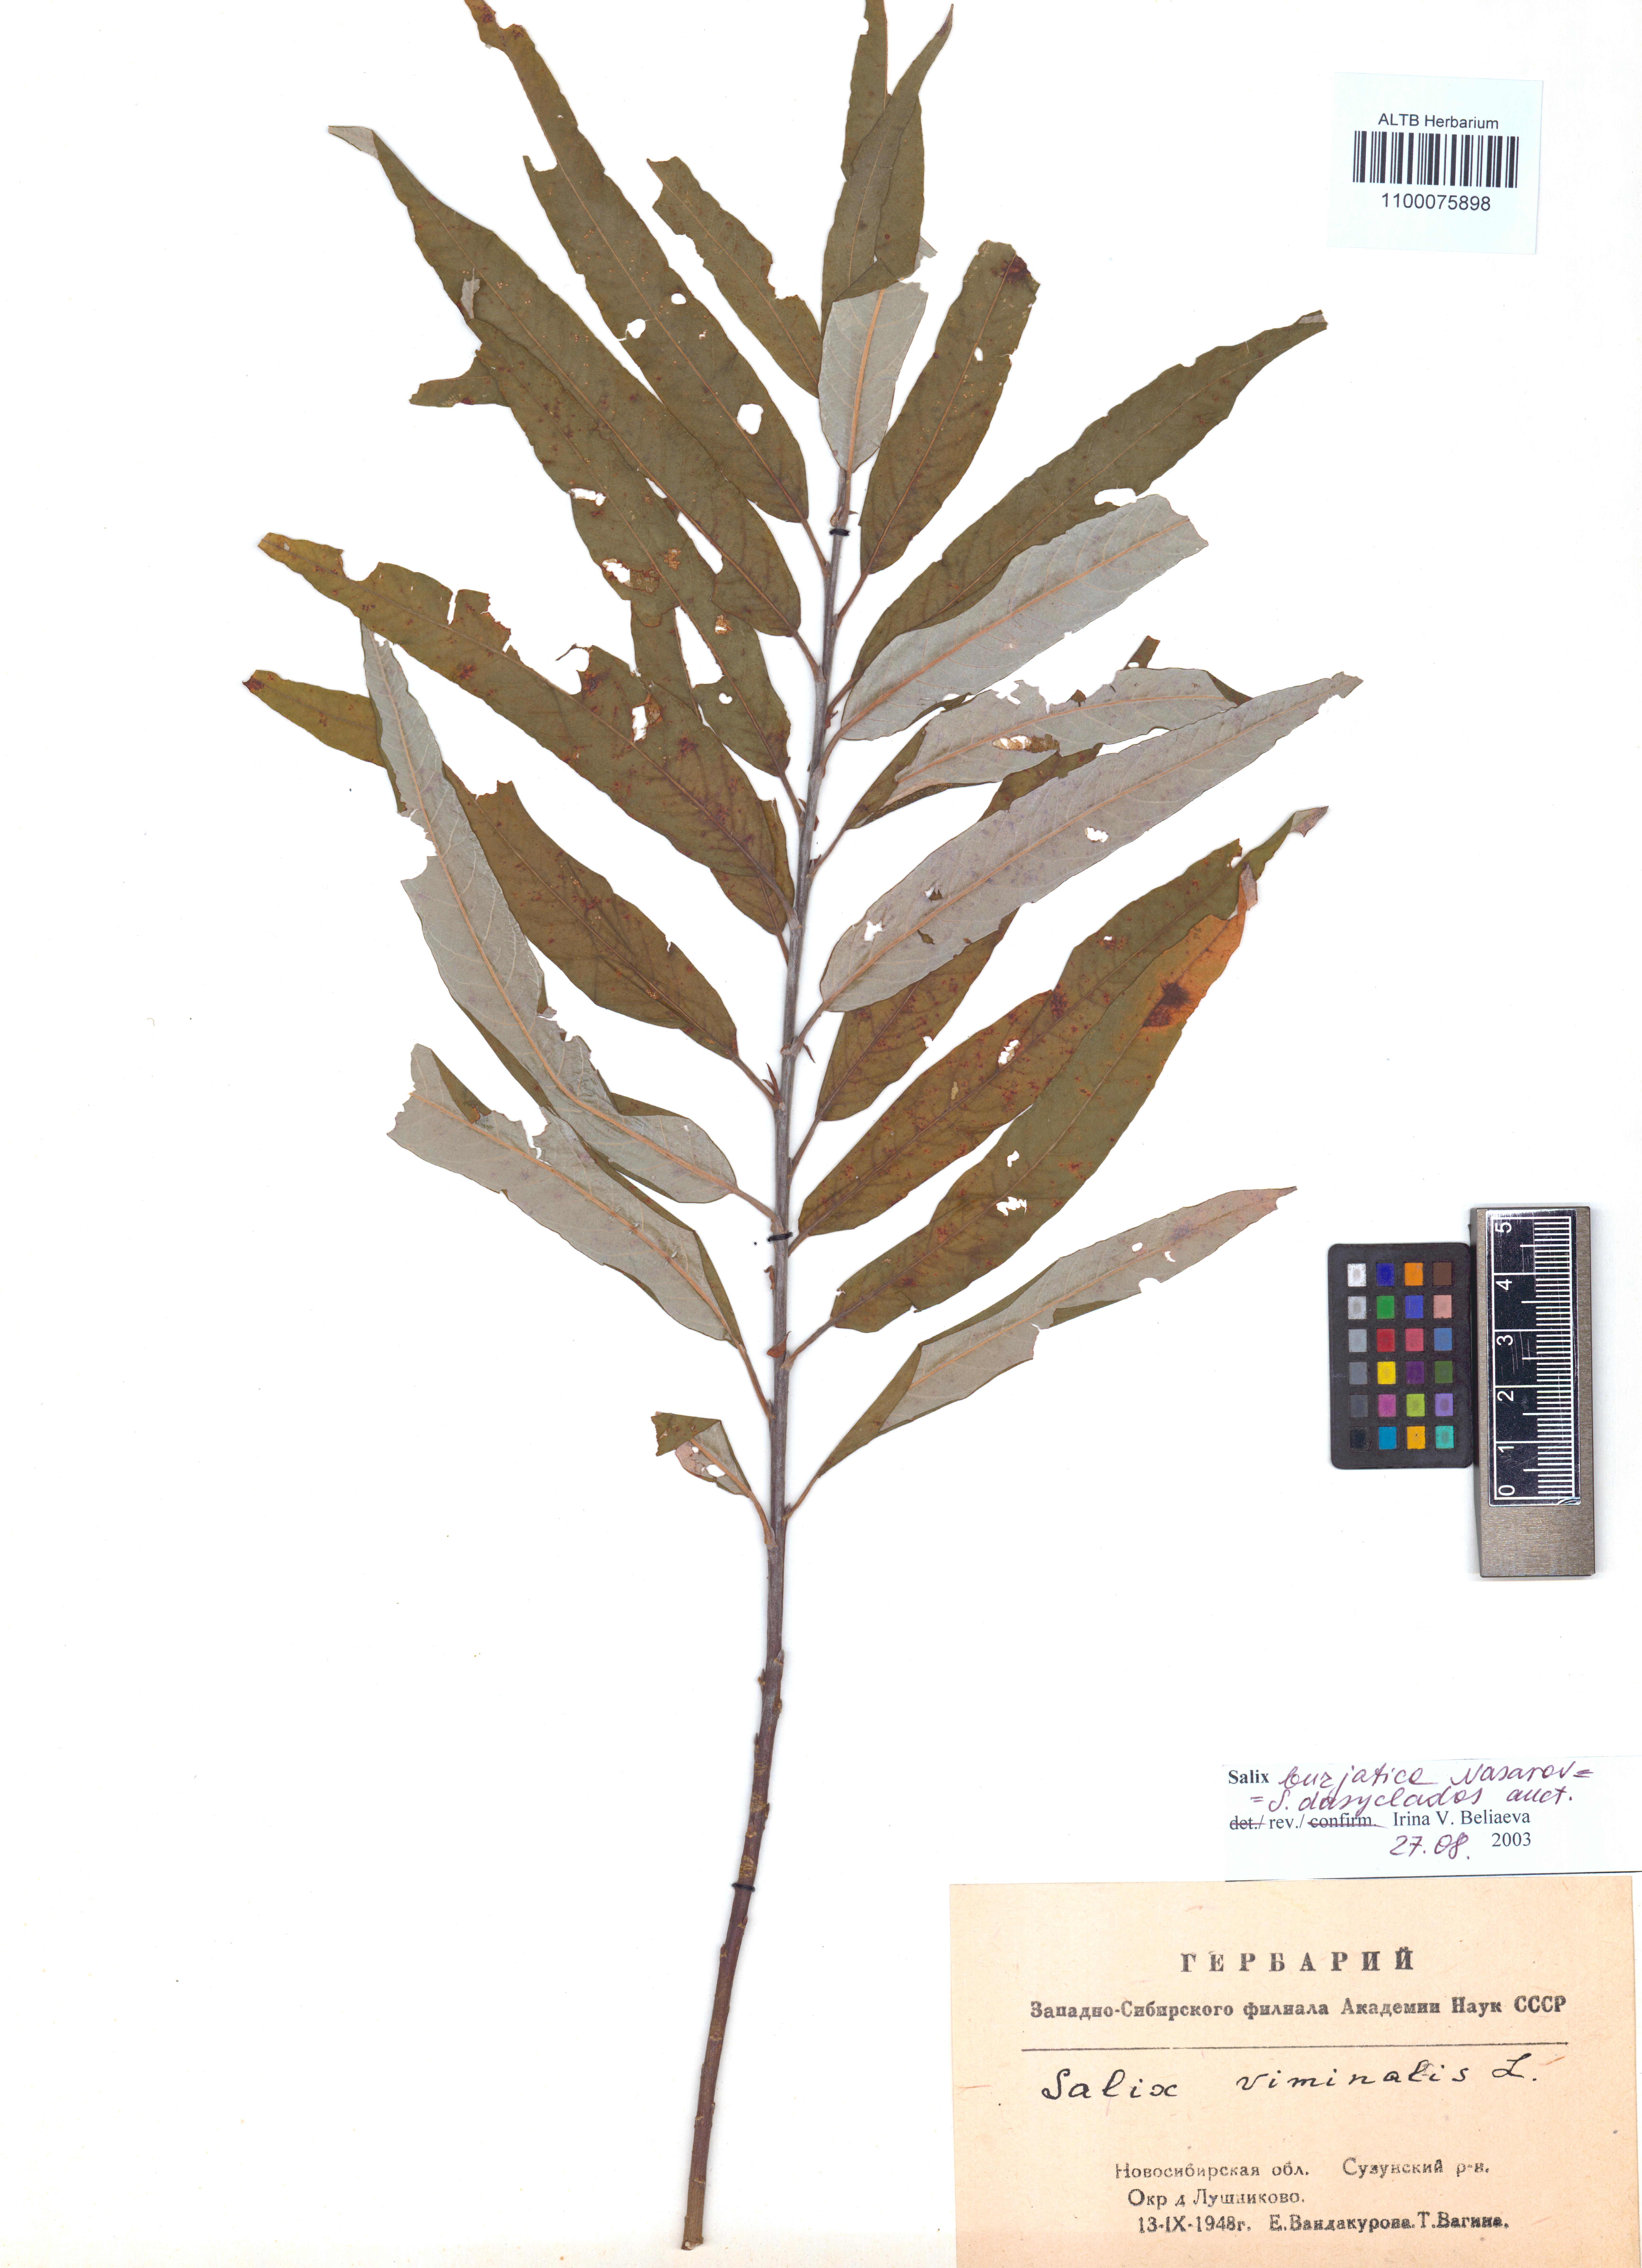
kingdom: Plantae
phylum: Tracheophyta
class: Magnoliopsida
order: Malpighiales
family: Salicaceae
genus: Salix
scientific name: Salix gmelinii
